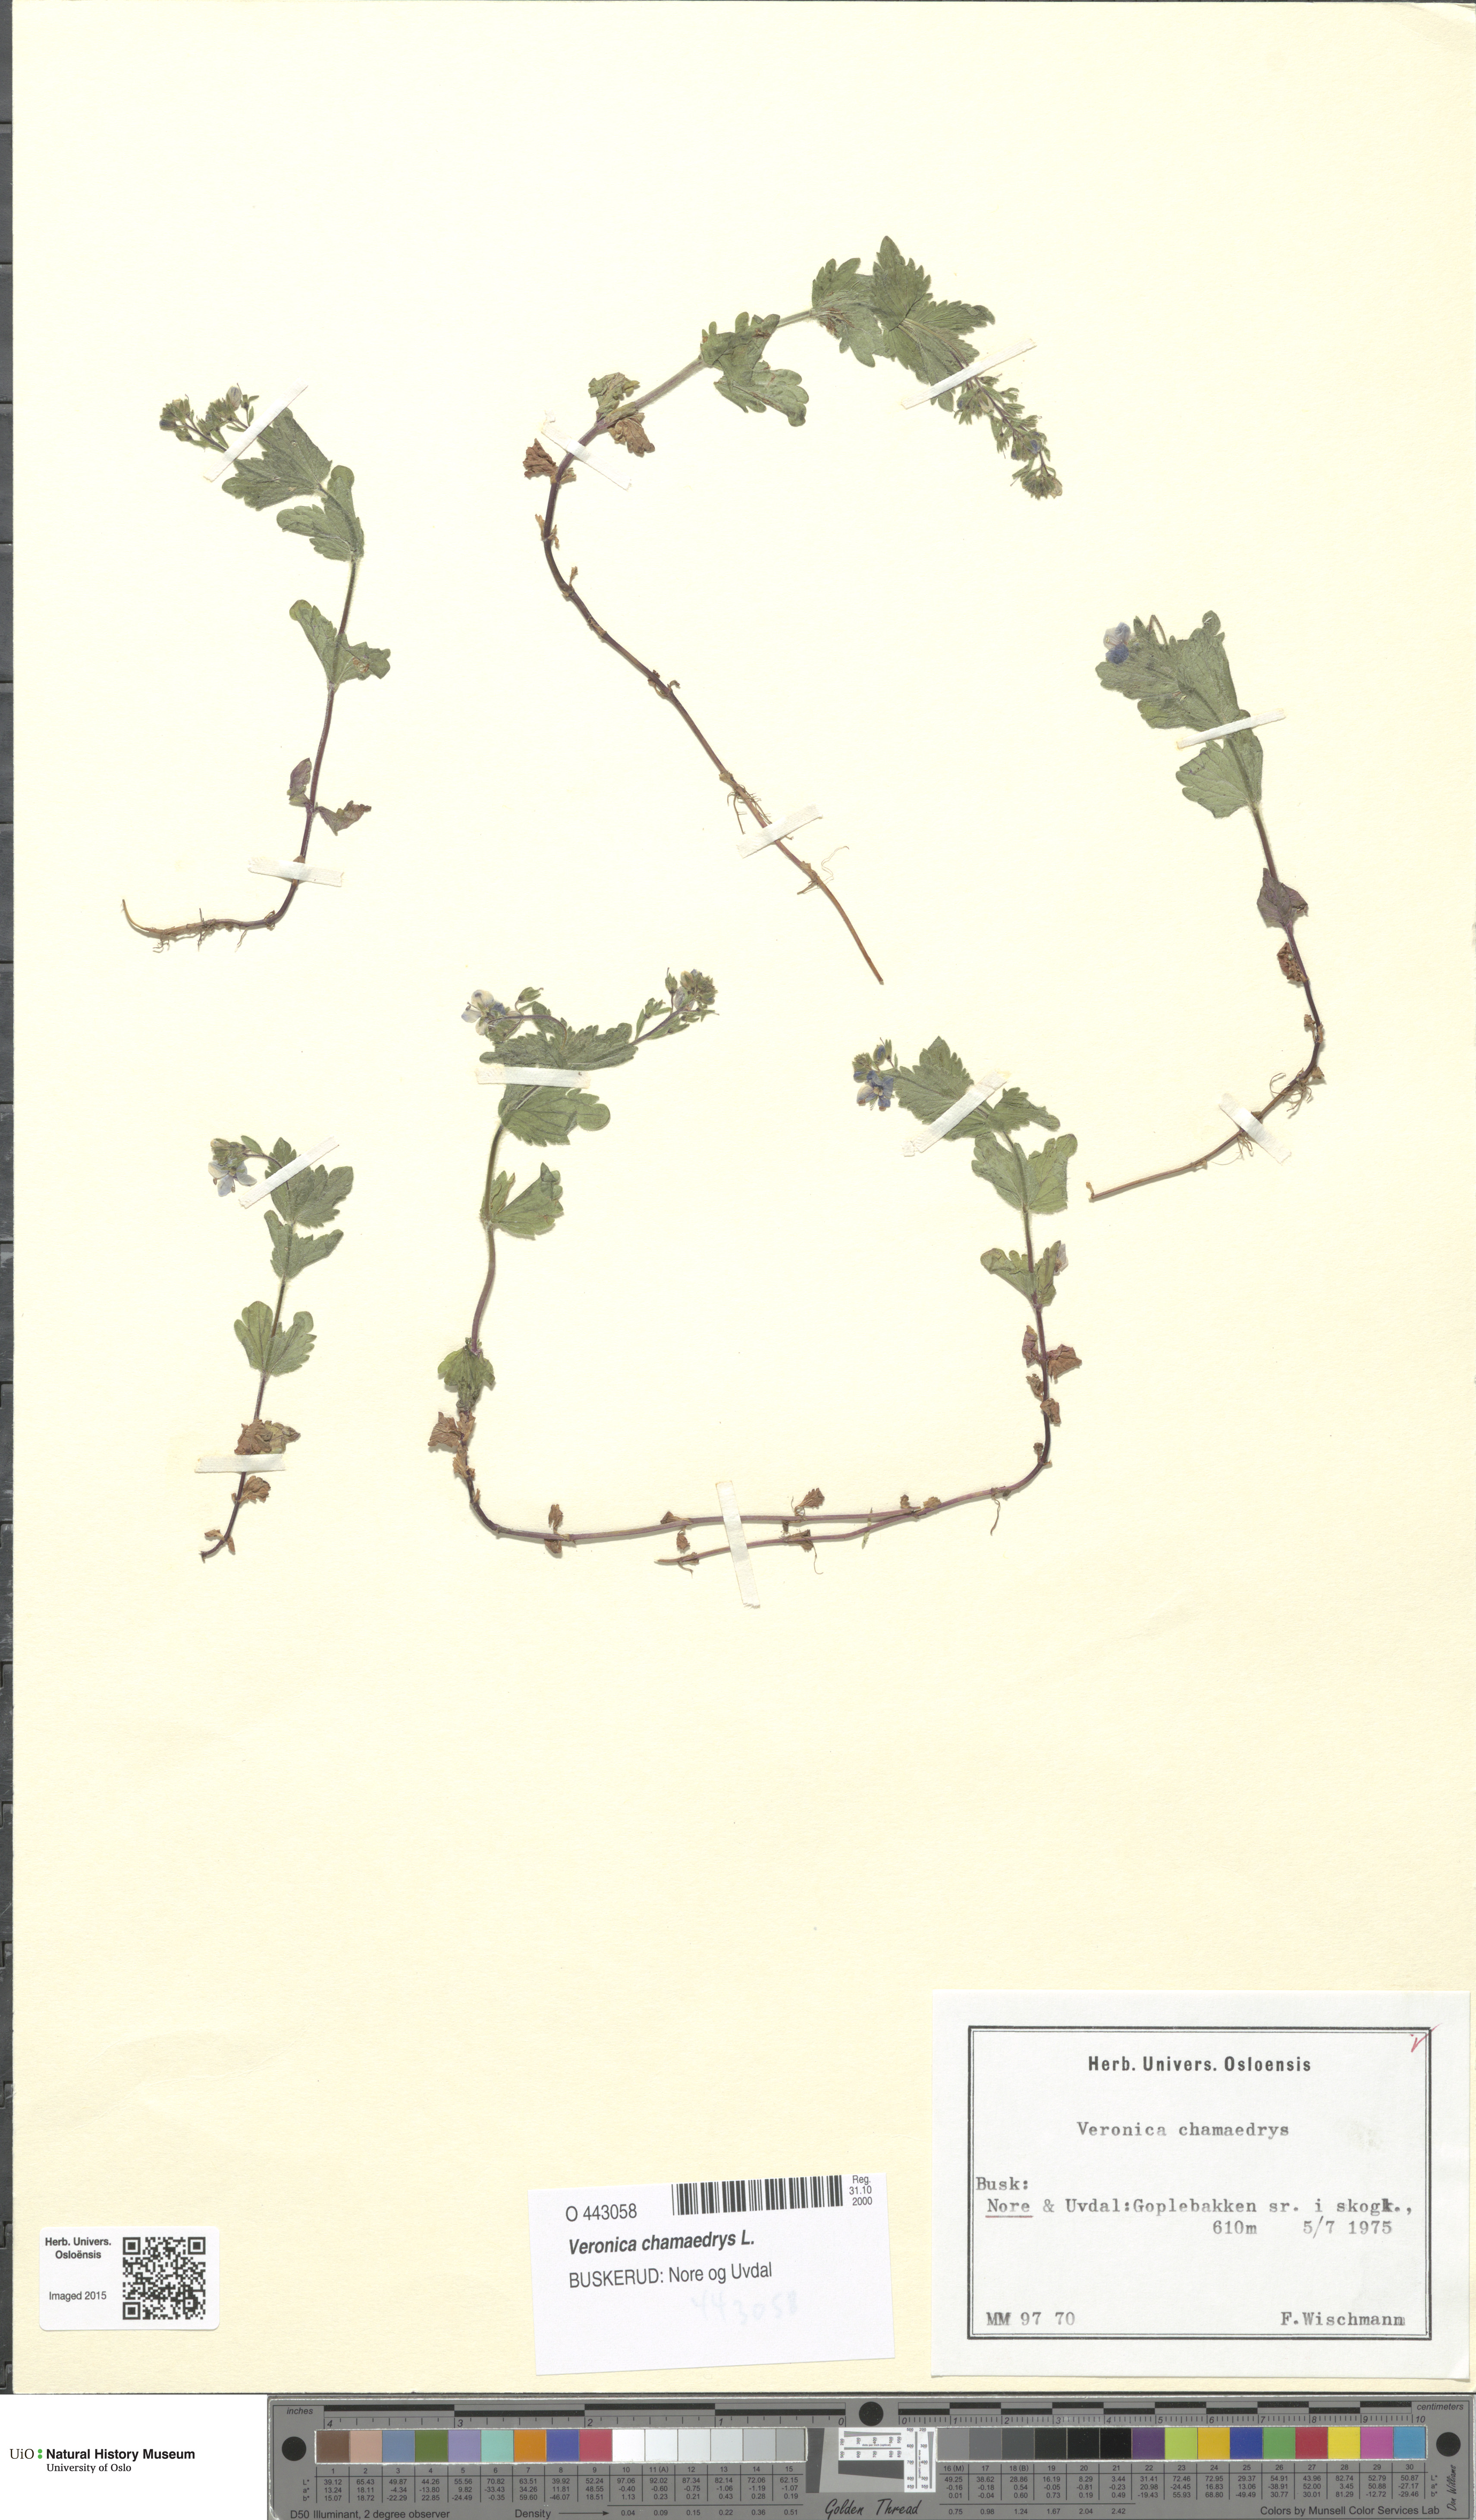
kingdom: Plantae
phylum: Tracheophyta
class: Magnoliopsida
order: Lamiales
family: Plantaginaceae
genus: Veronica
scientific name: Veronica chamaedrys
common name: Germander speedwell
